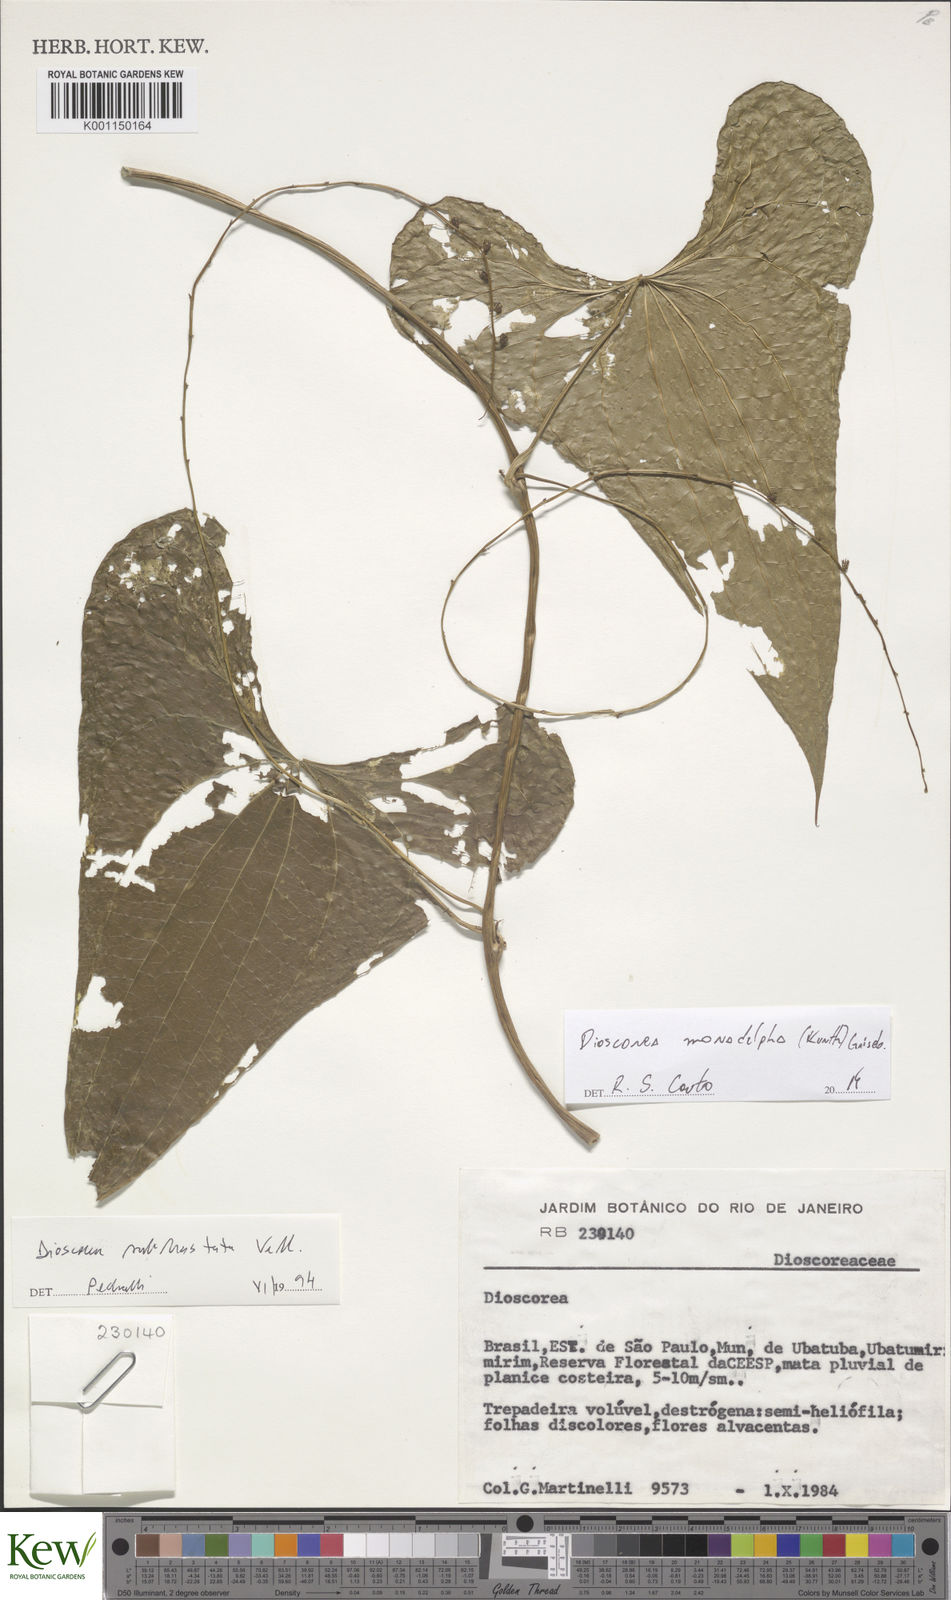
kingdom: Plantae
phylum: Tracheophyta
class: Liliopsida
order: Dioscoreales
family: Dioscoreaceae
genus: Dioscorea
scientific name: Dioscorea
